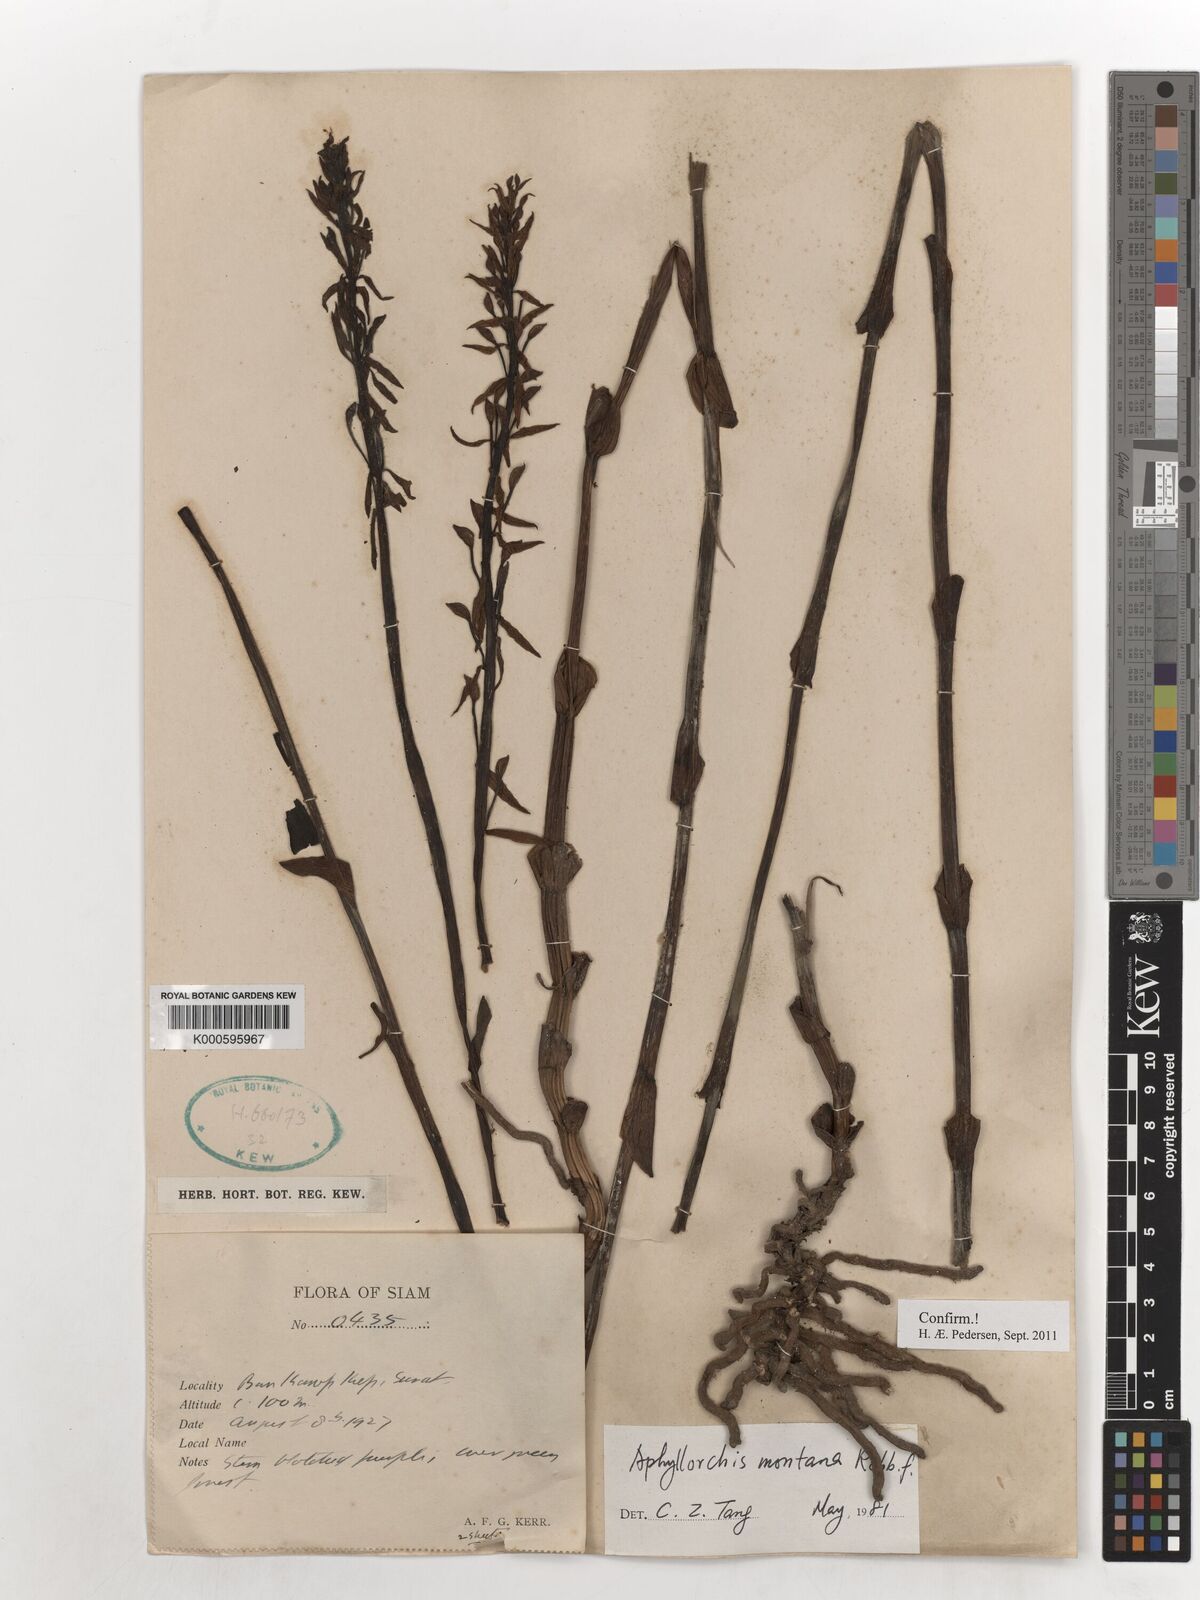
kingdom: Plantae
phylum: Tracheophyta
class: Liliopsida
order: Asparagales
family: Orchidaceae
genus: Aphyllorchis
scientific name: Aphyllorchis montana
